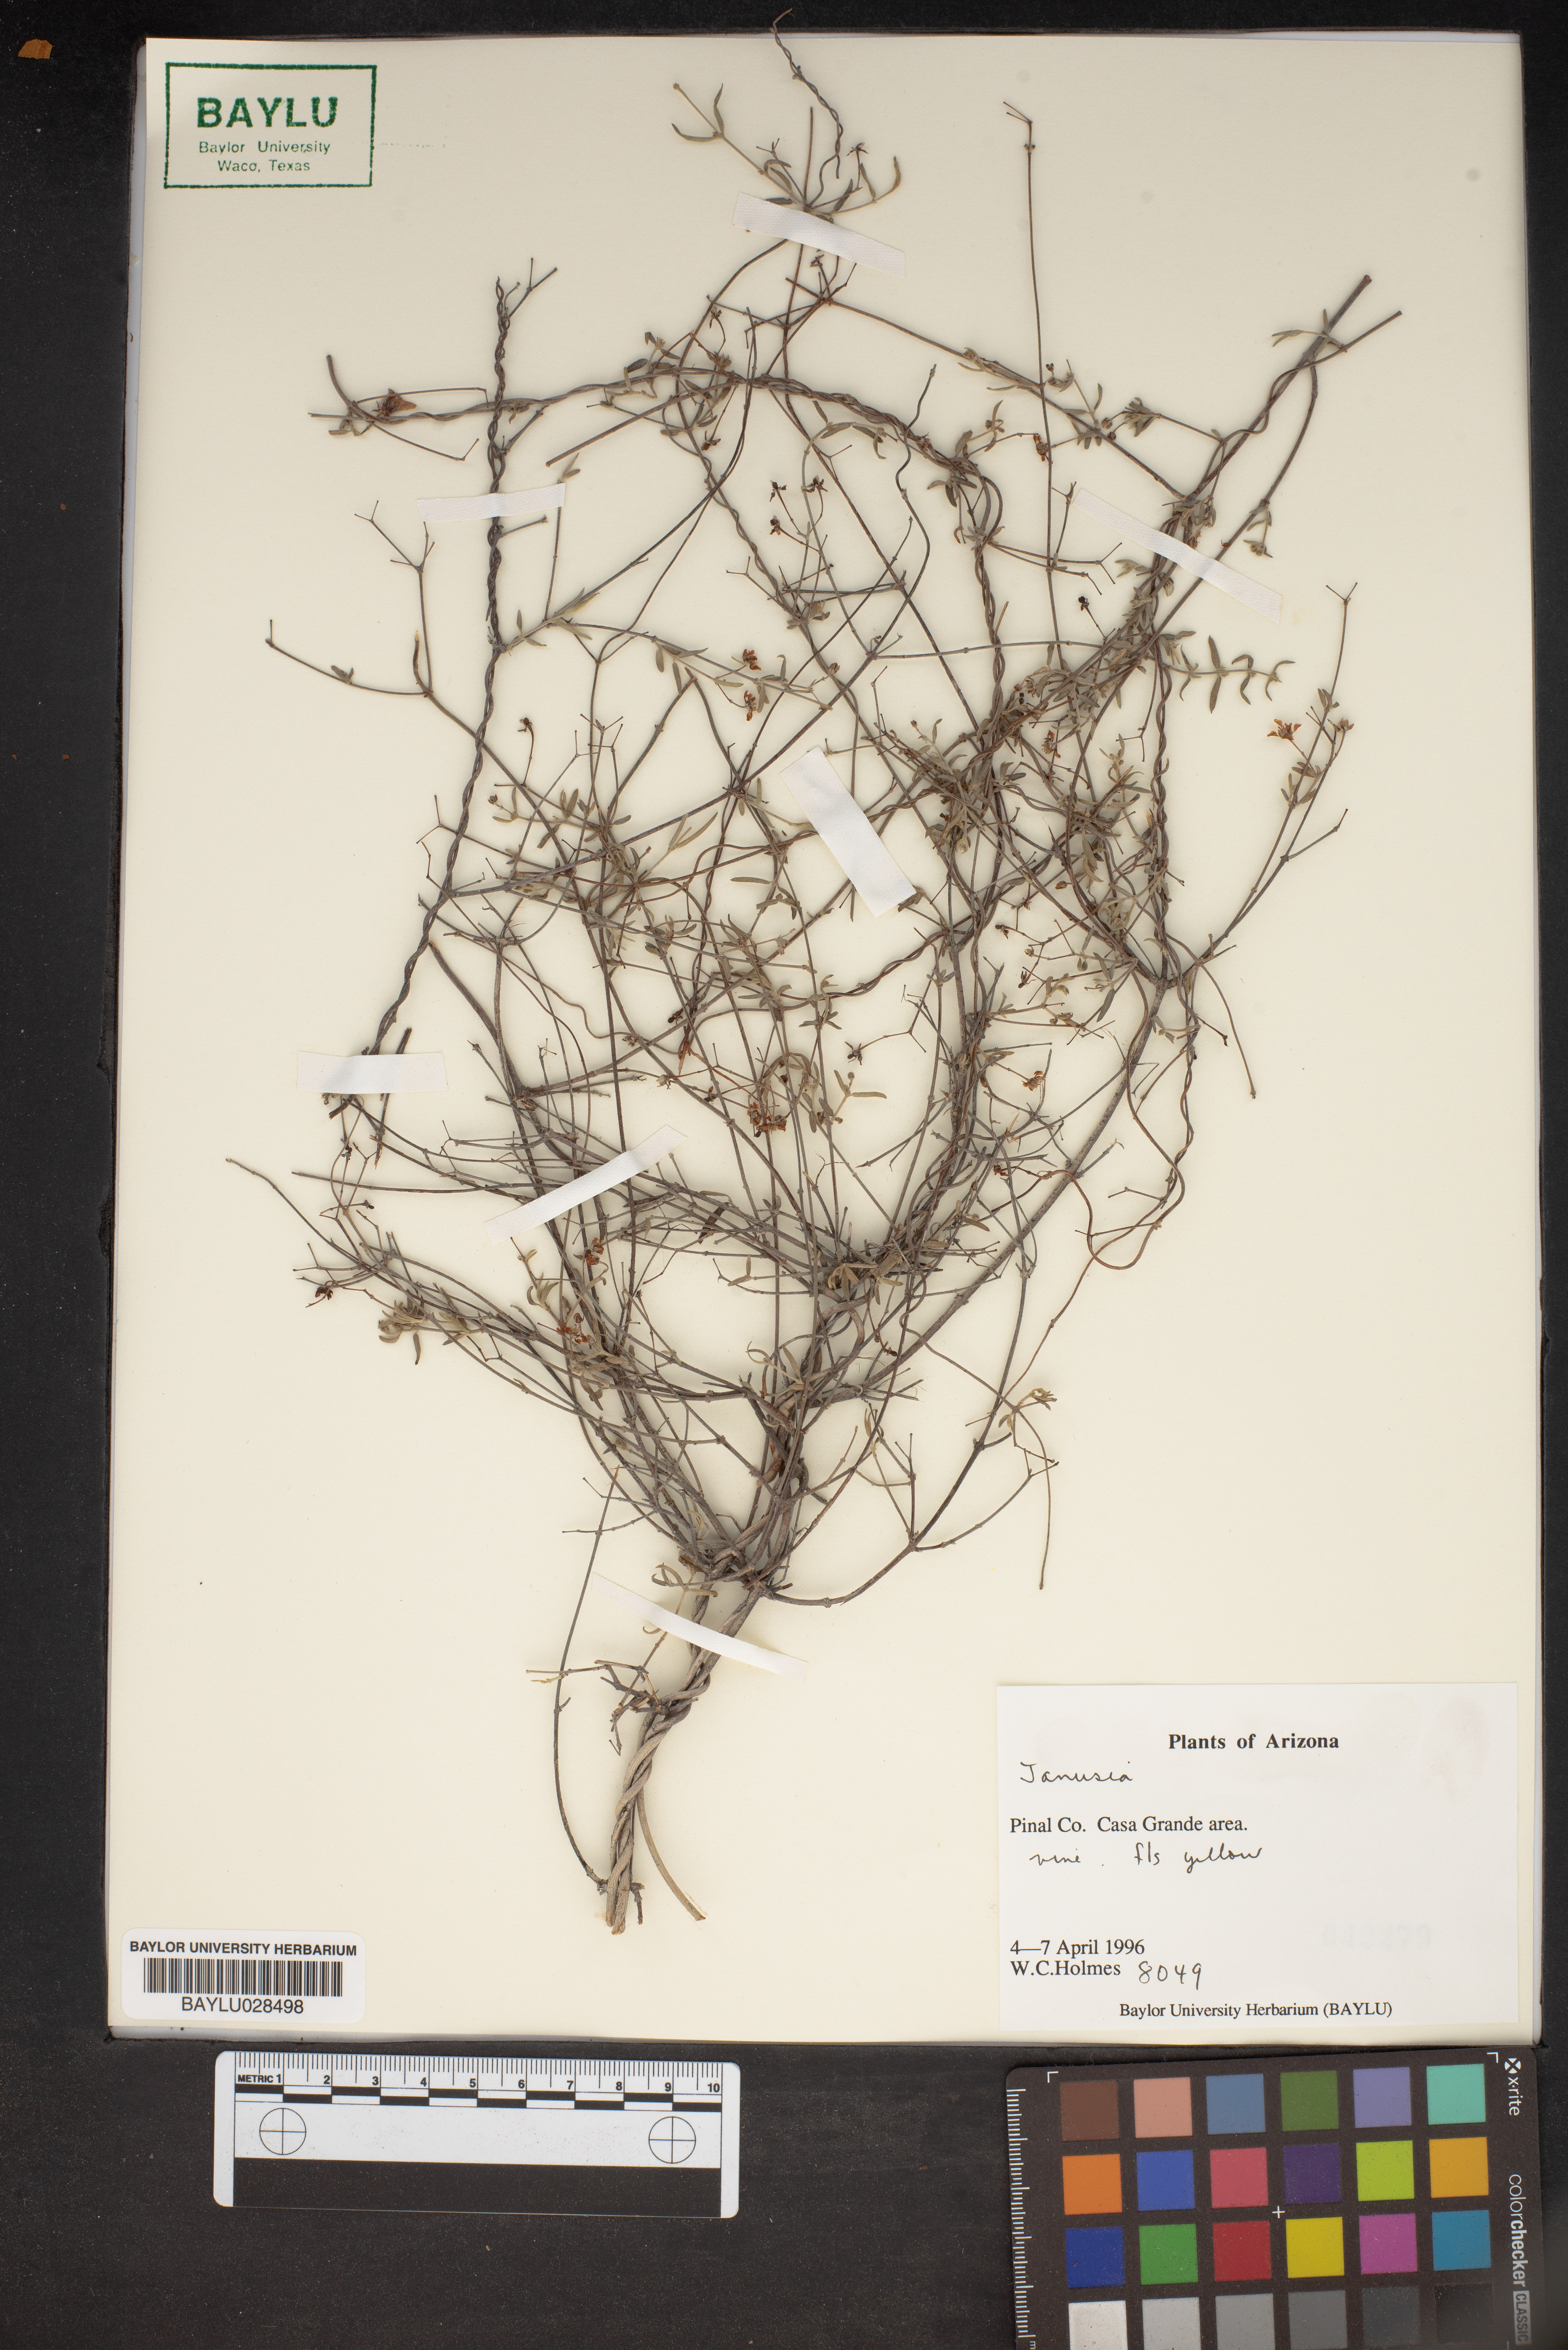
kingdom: Plantae
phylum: Tracheophyta
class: Magnoliopsida
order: Malpighiales
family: Malpighiaceae
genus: Janusia
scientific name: Janusia
